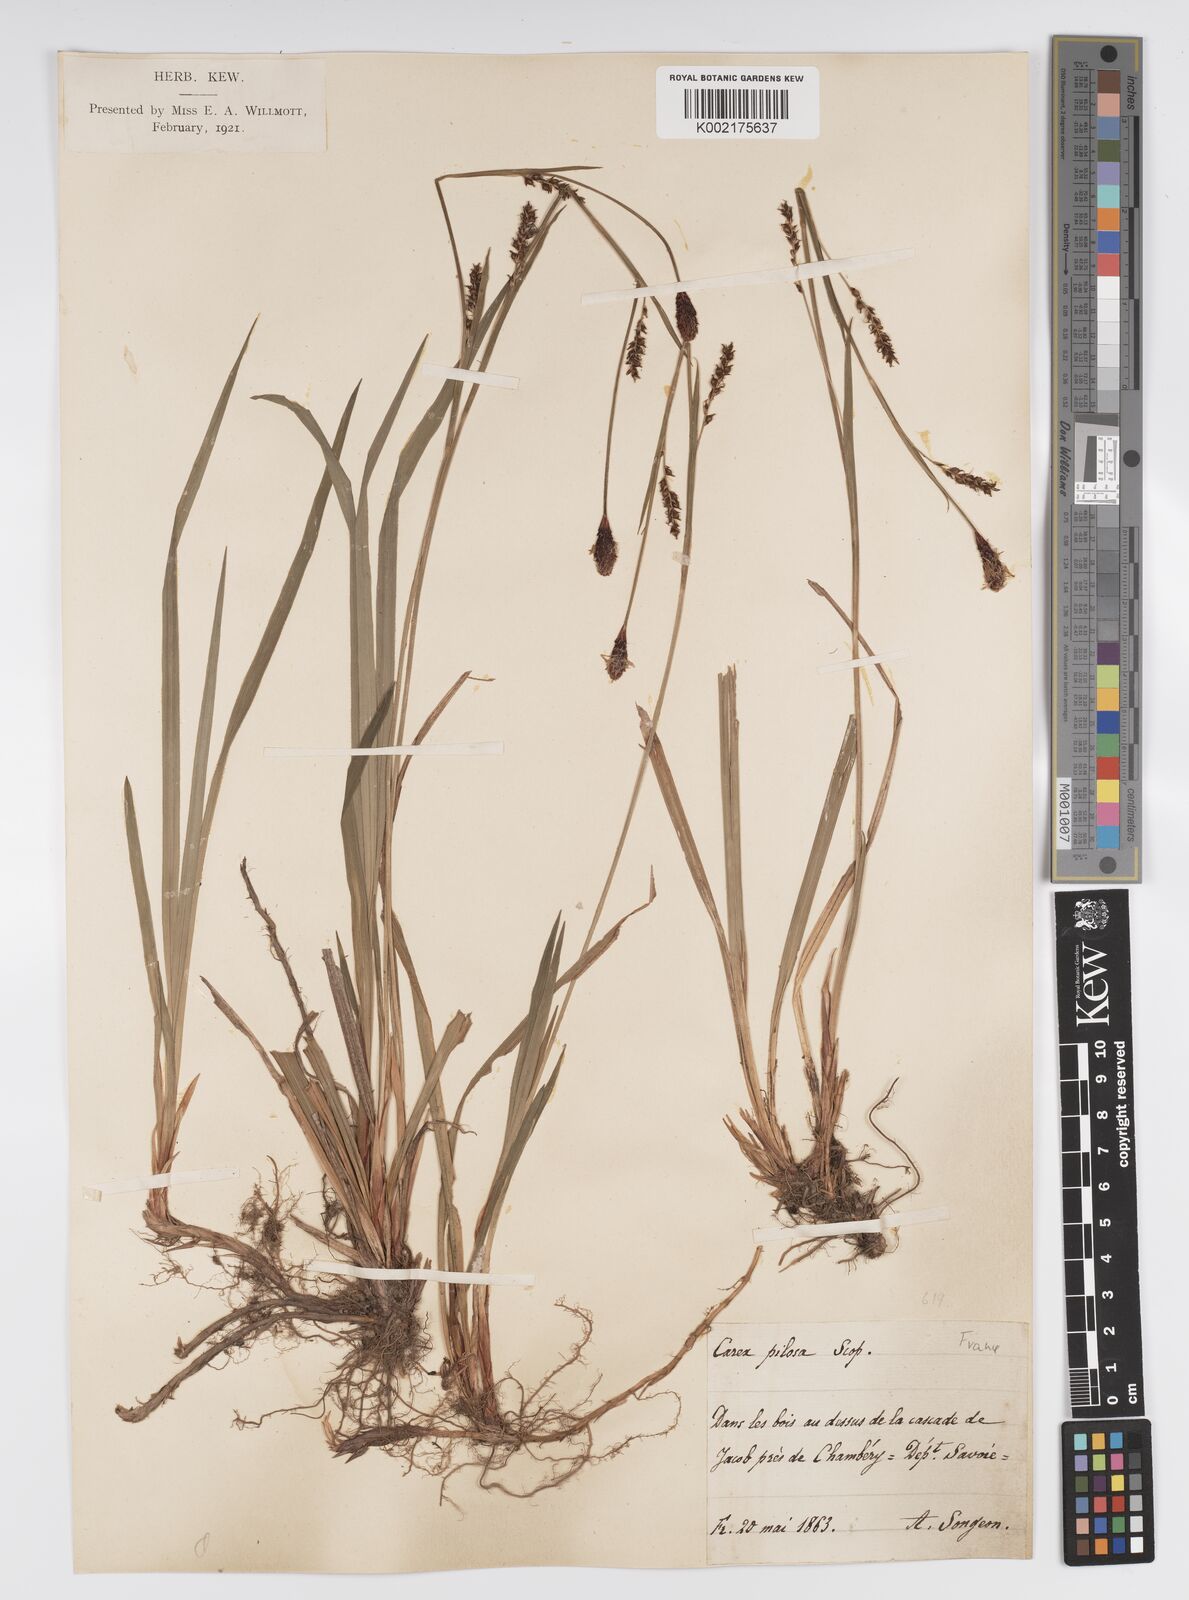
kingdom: Plantae
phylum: Tracheophyta
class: Liliopsida
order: Poales
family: Cyperaceae
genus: Carex
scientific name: Carex pilosa
